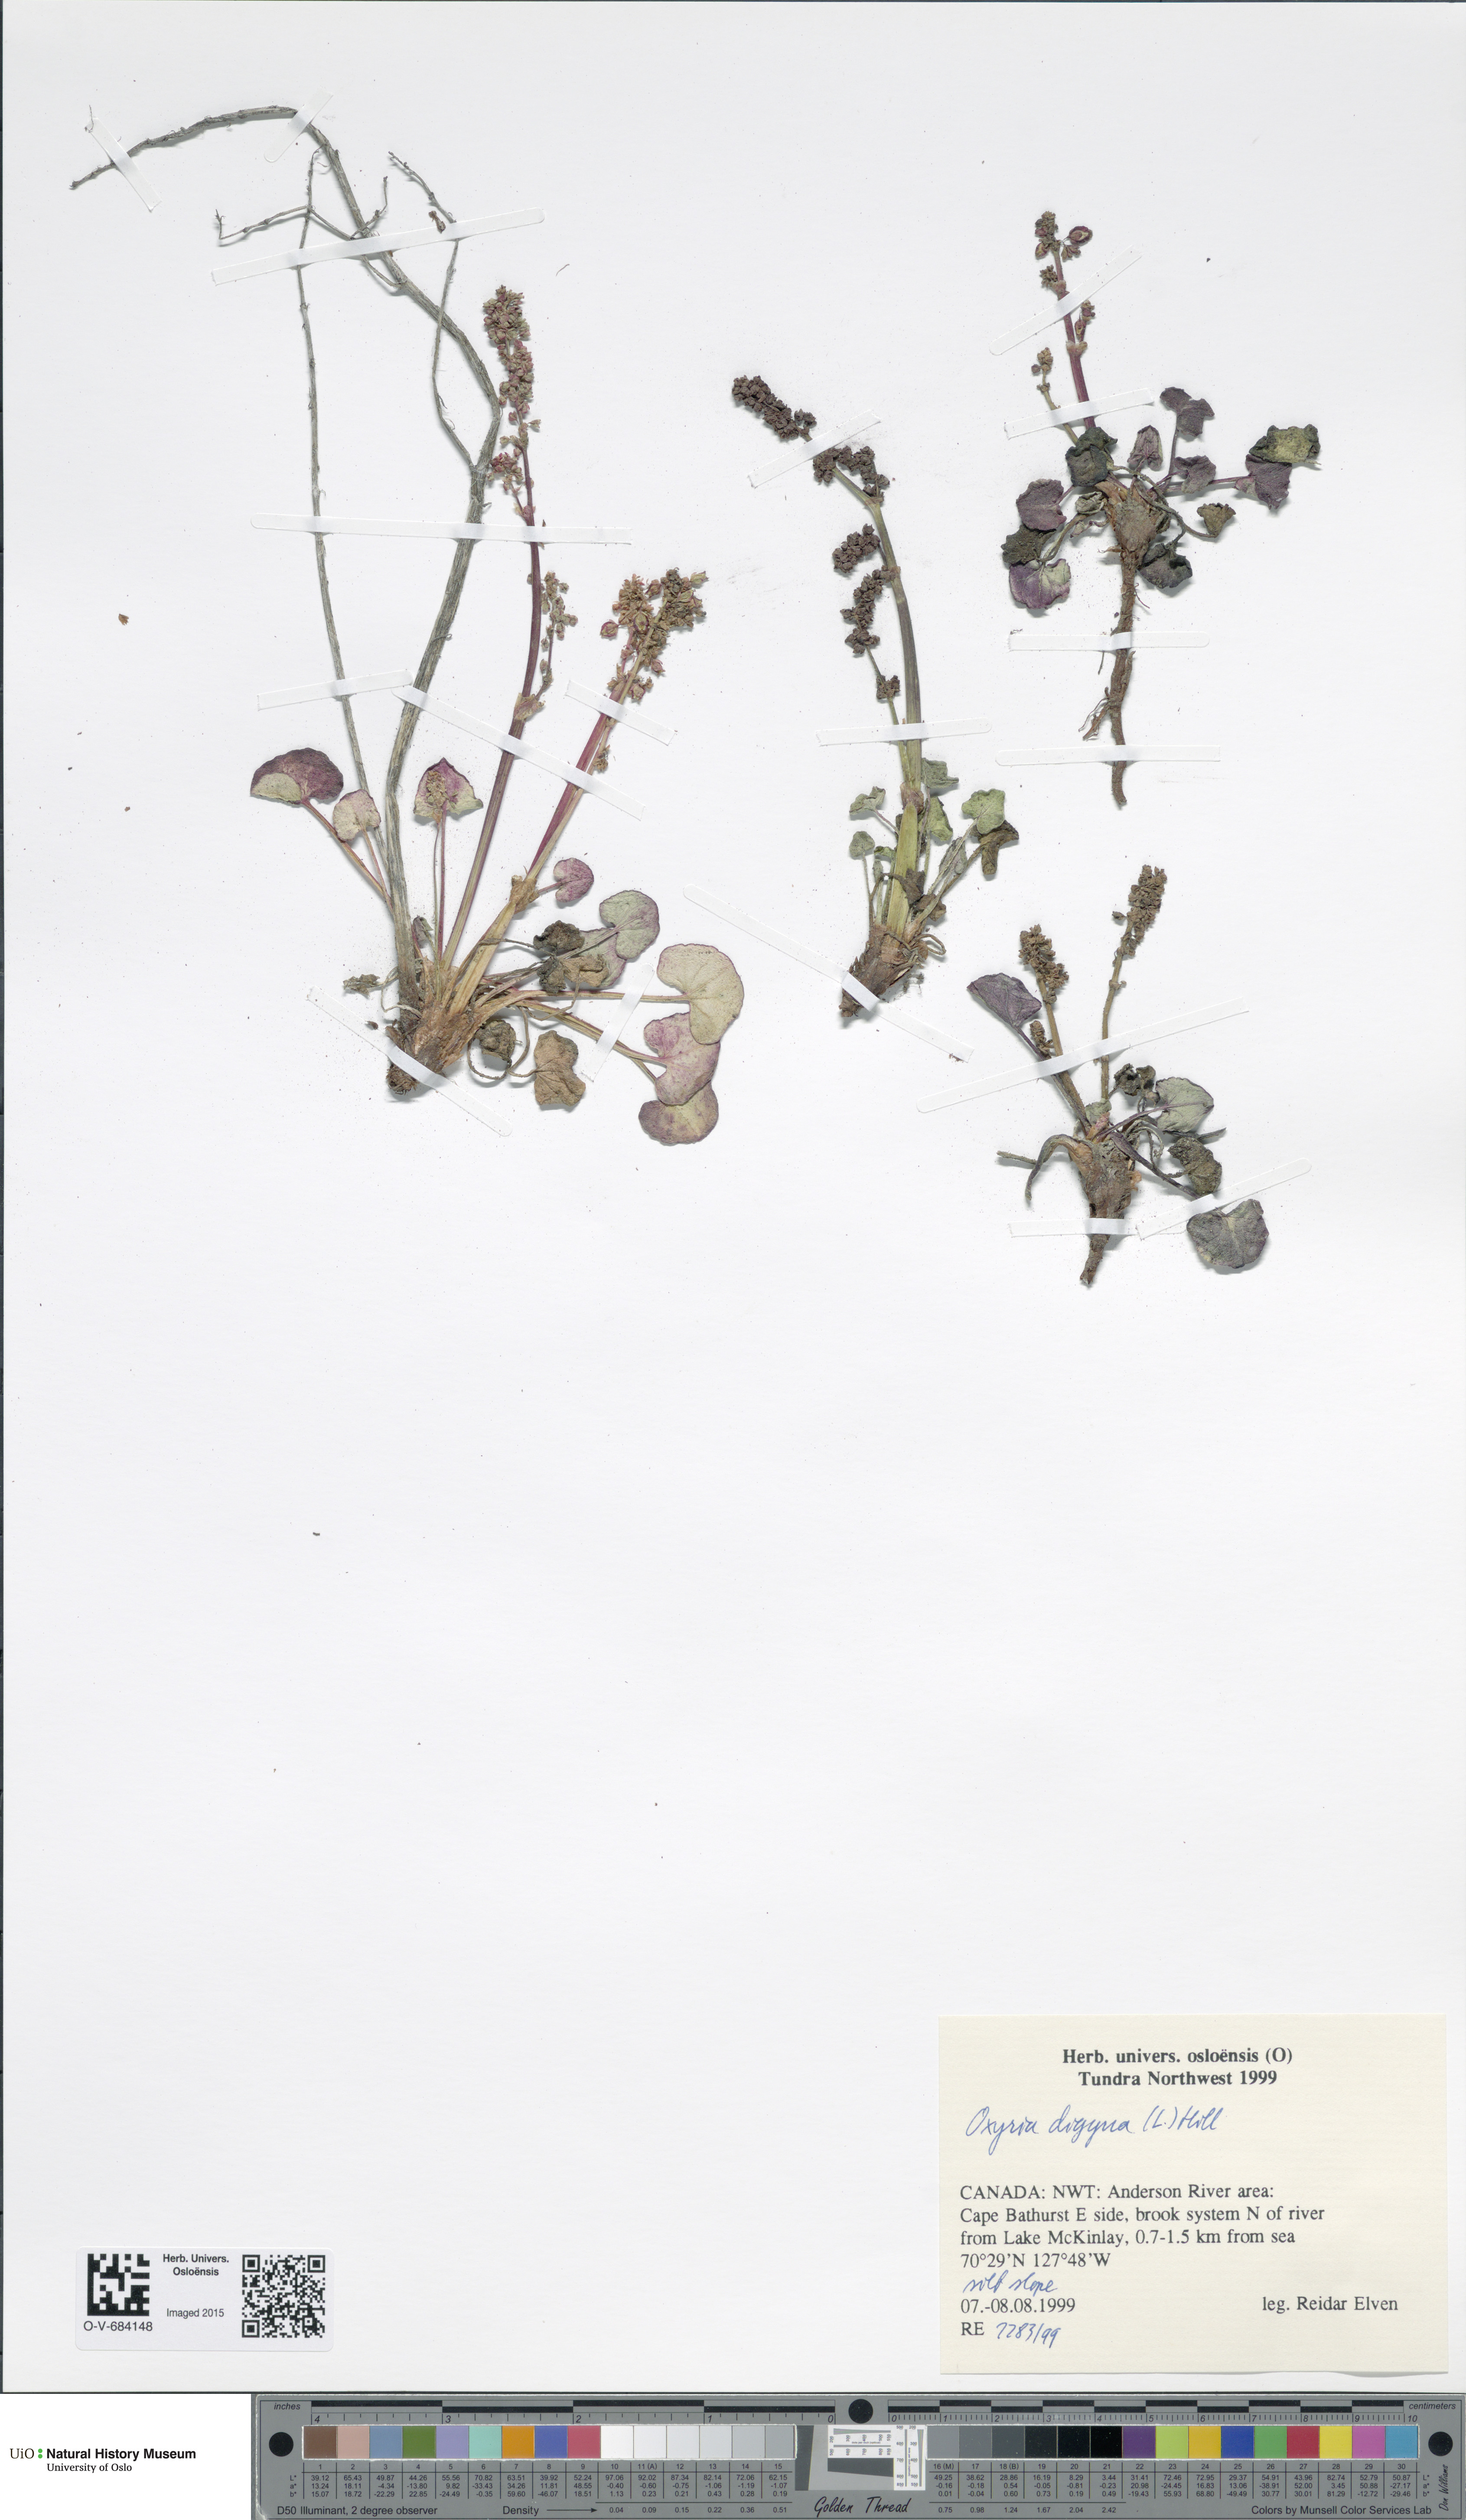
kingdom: Plantae
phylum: Tracheophyta
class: Magnoliopsida
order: Caryophyllales
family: Polygonaceae
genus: Oxyria
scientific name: Oxyria digyna
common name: Alpine mountain-sorrel
